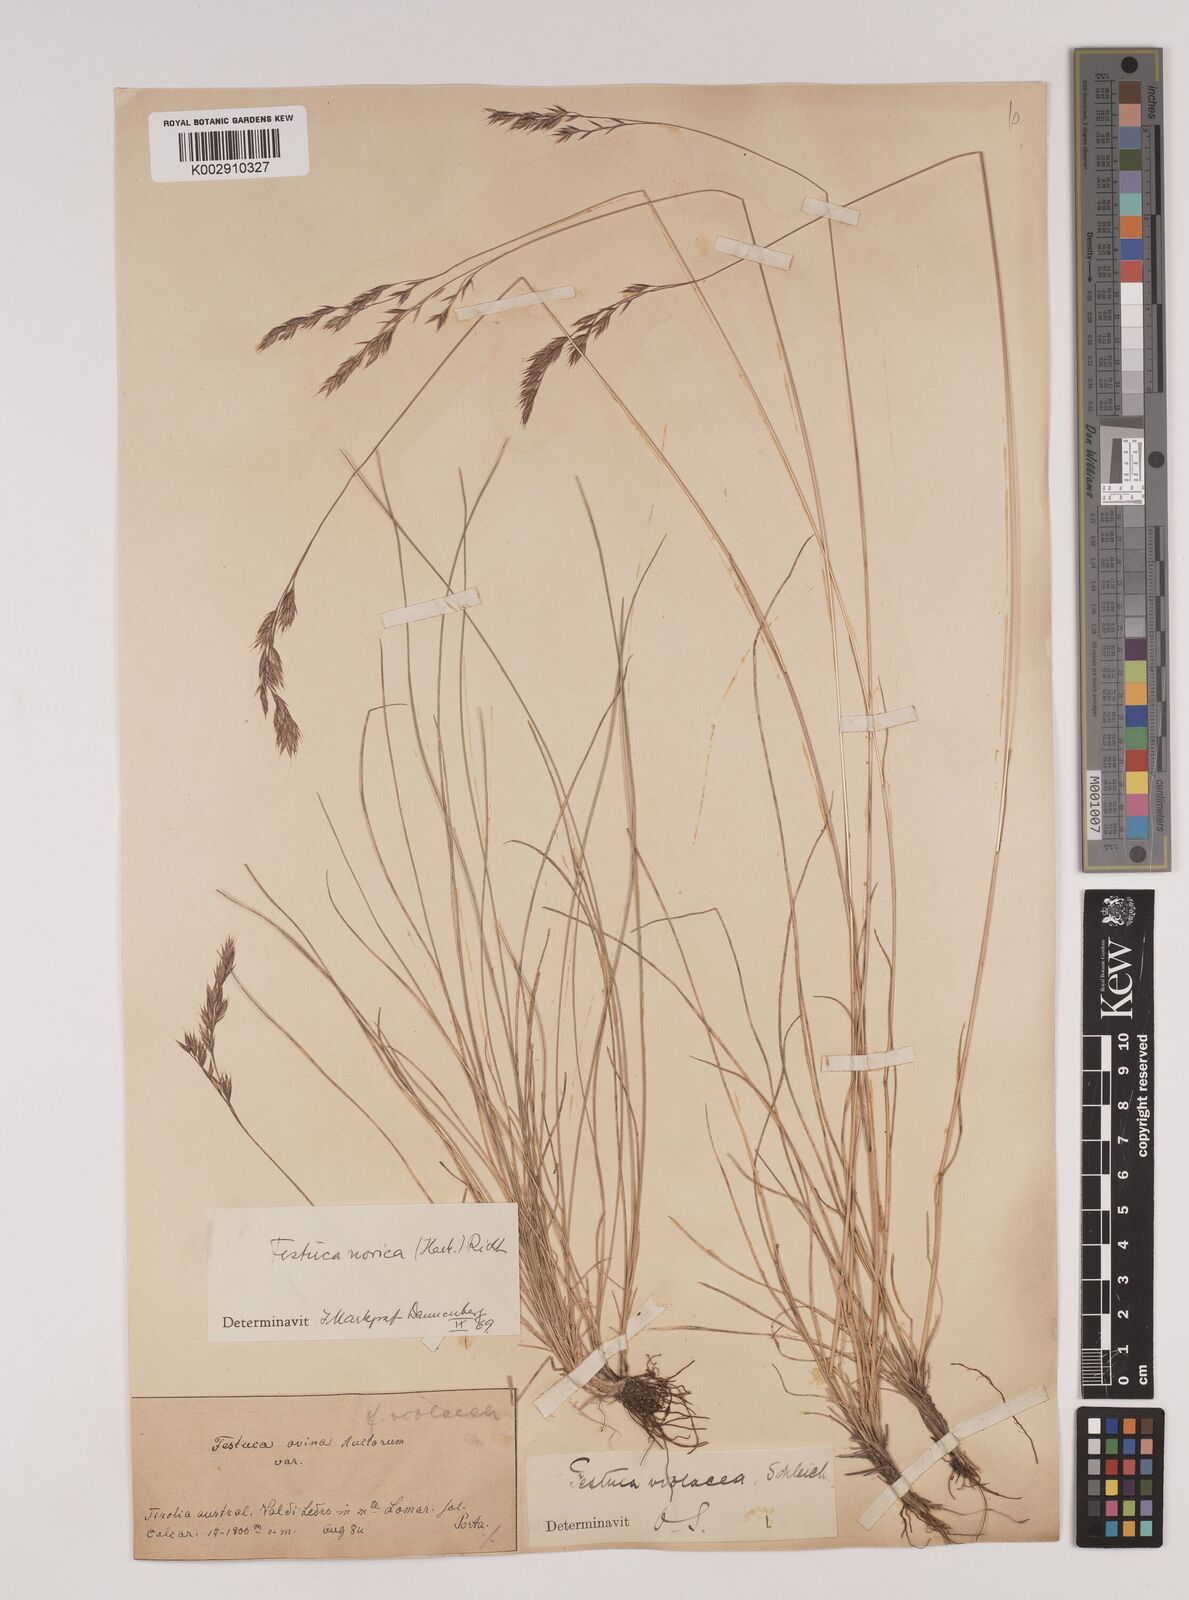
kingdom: Plantae
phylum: Tracheophyta
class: Liliopsida
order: Poales
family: Poaceae
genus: Festuca
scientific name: Festuca norica
